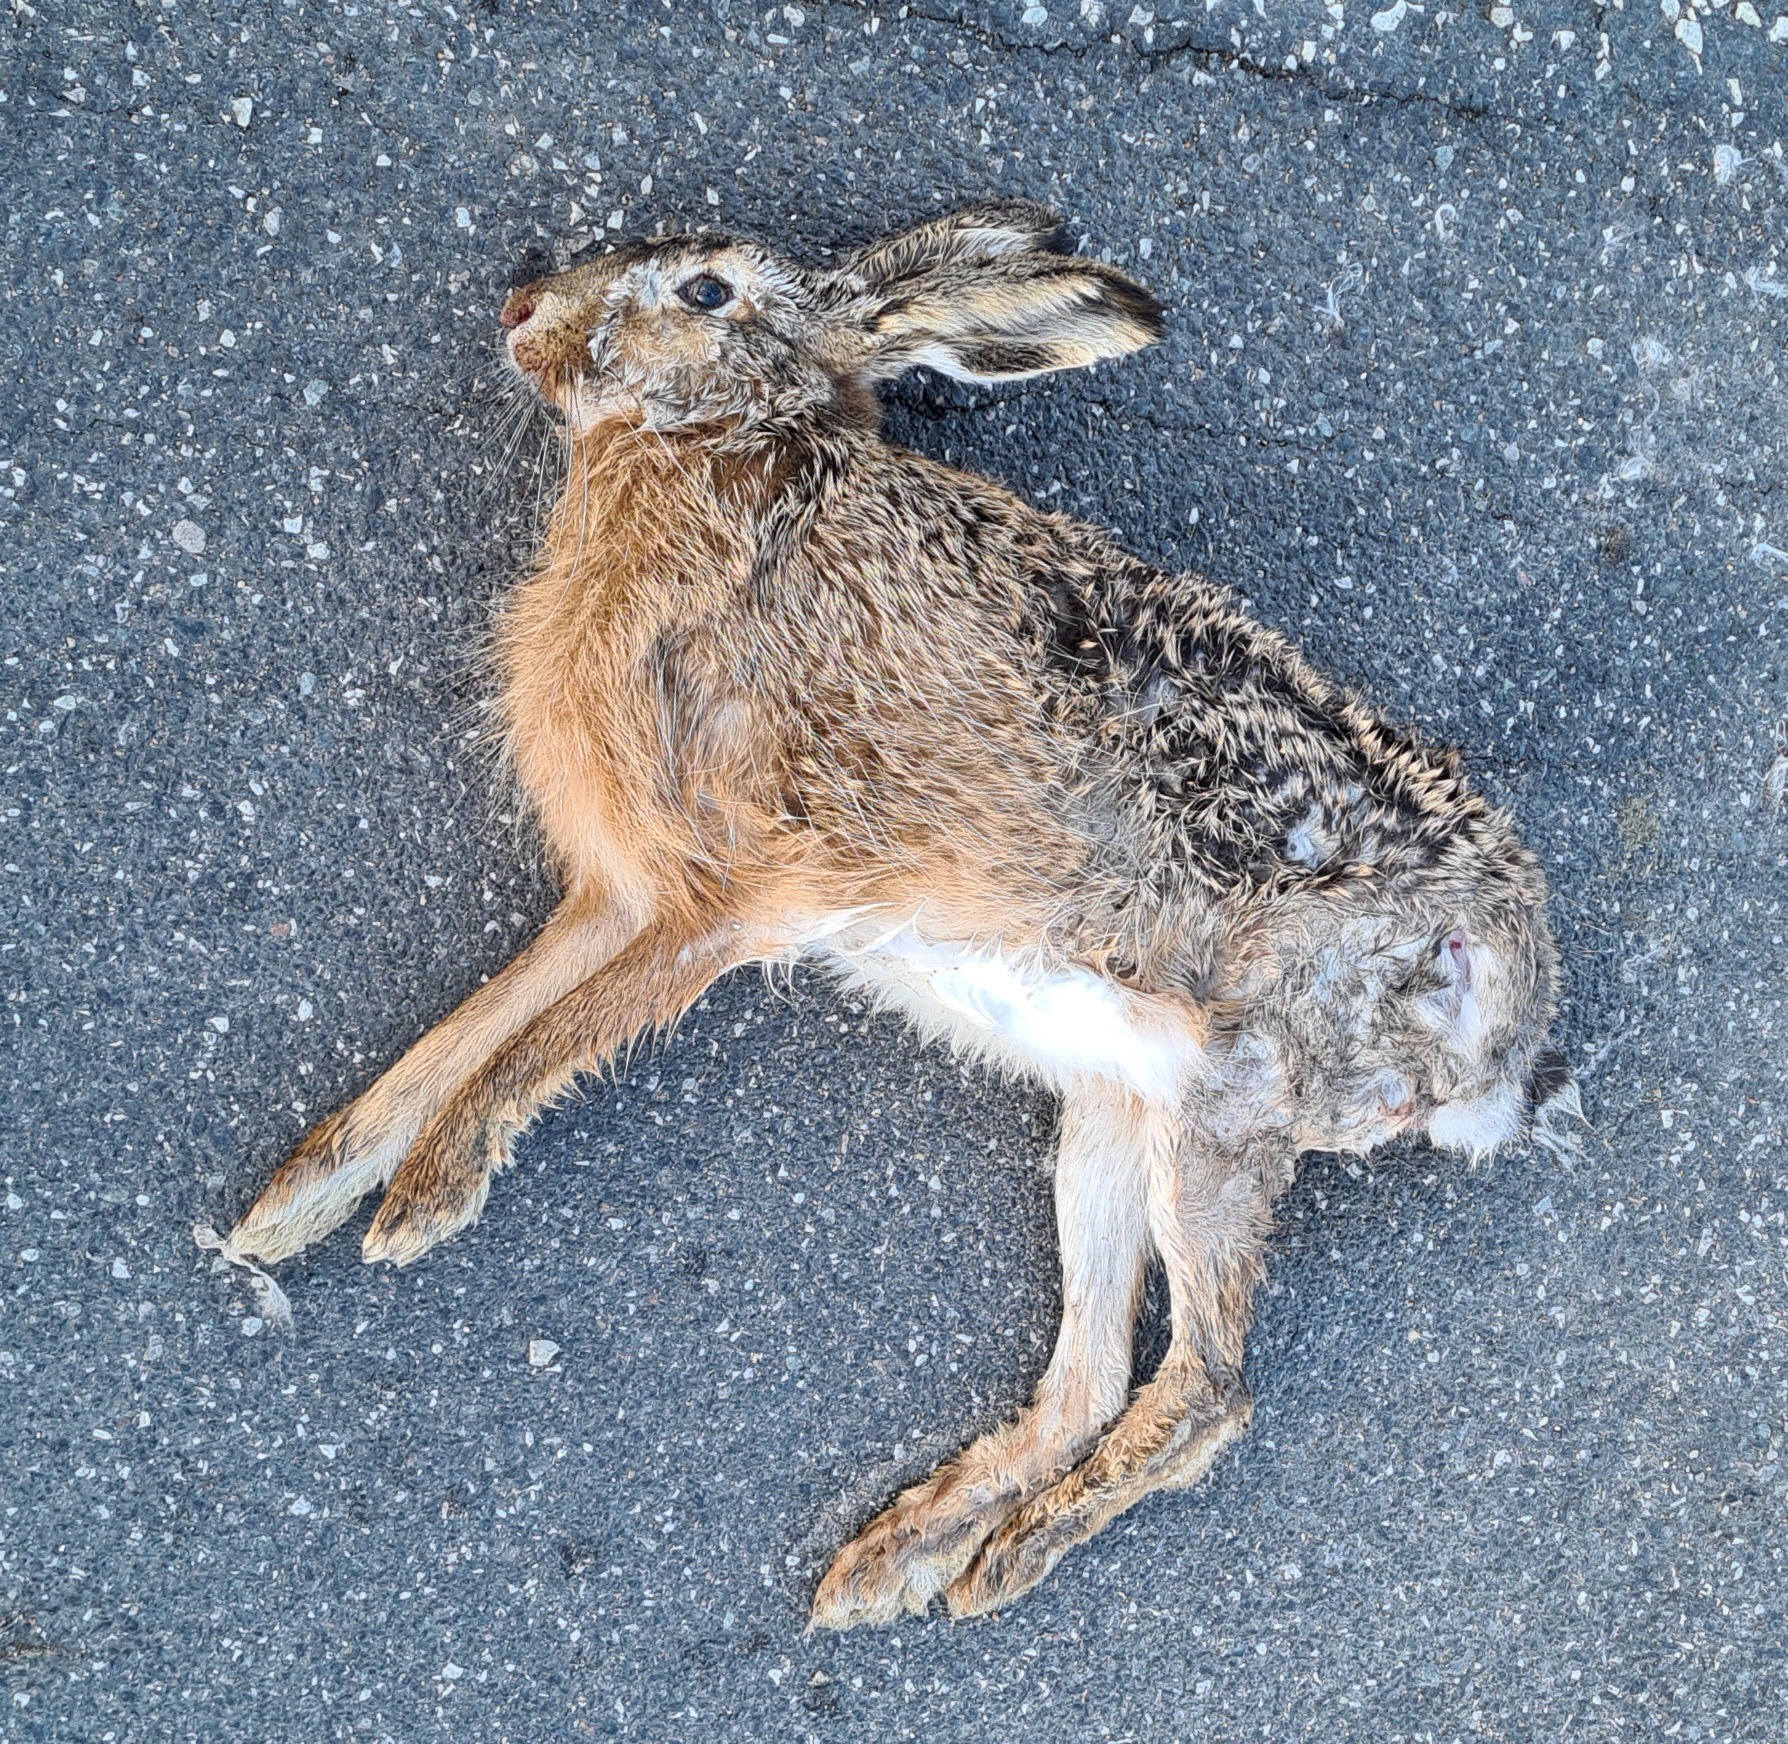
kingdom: Animalia
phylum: Chordata
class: Mammalia
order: Lagomorpha
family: Leporidae
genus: Lepus
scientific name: Lepus europaeus
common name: Hare
